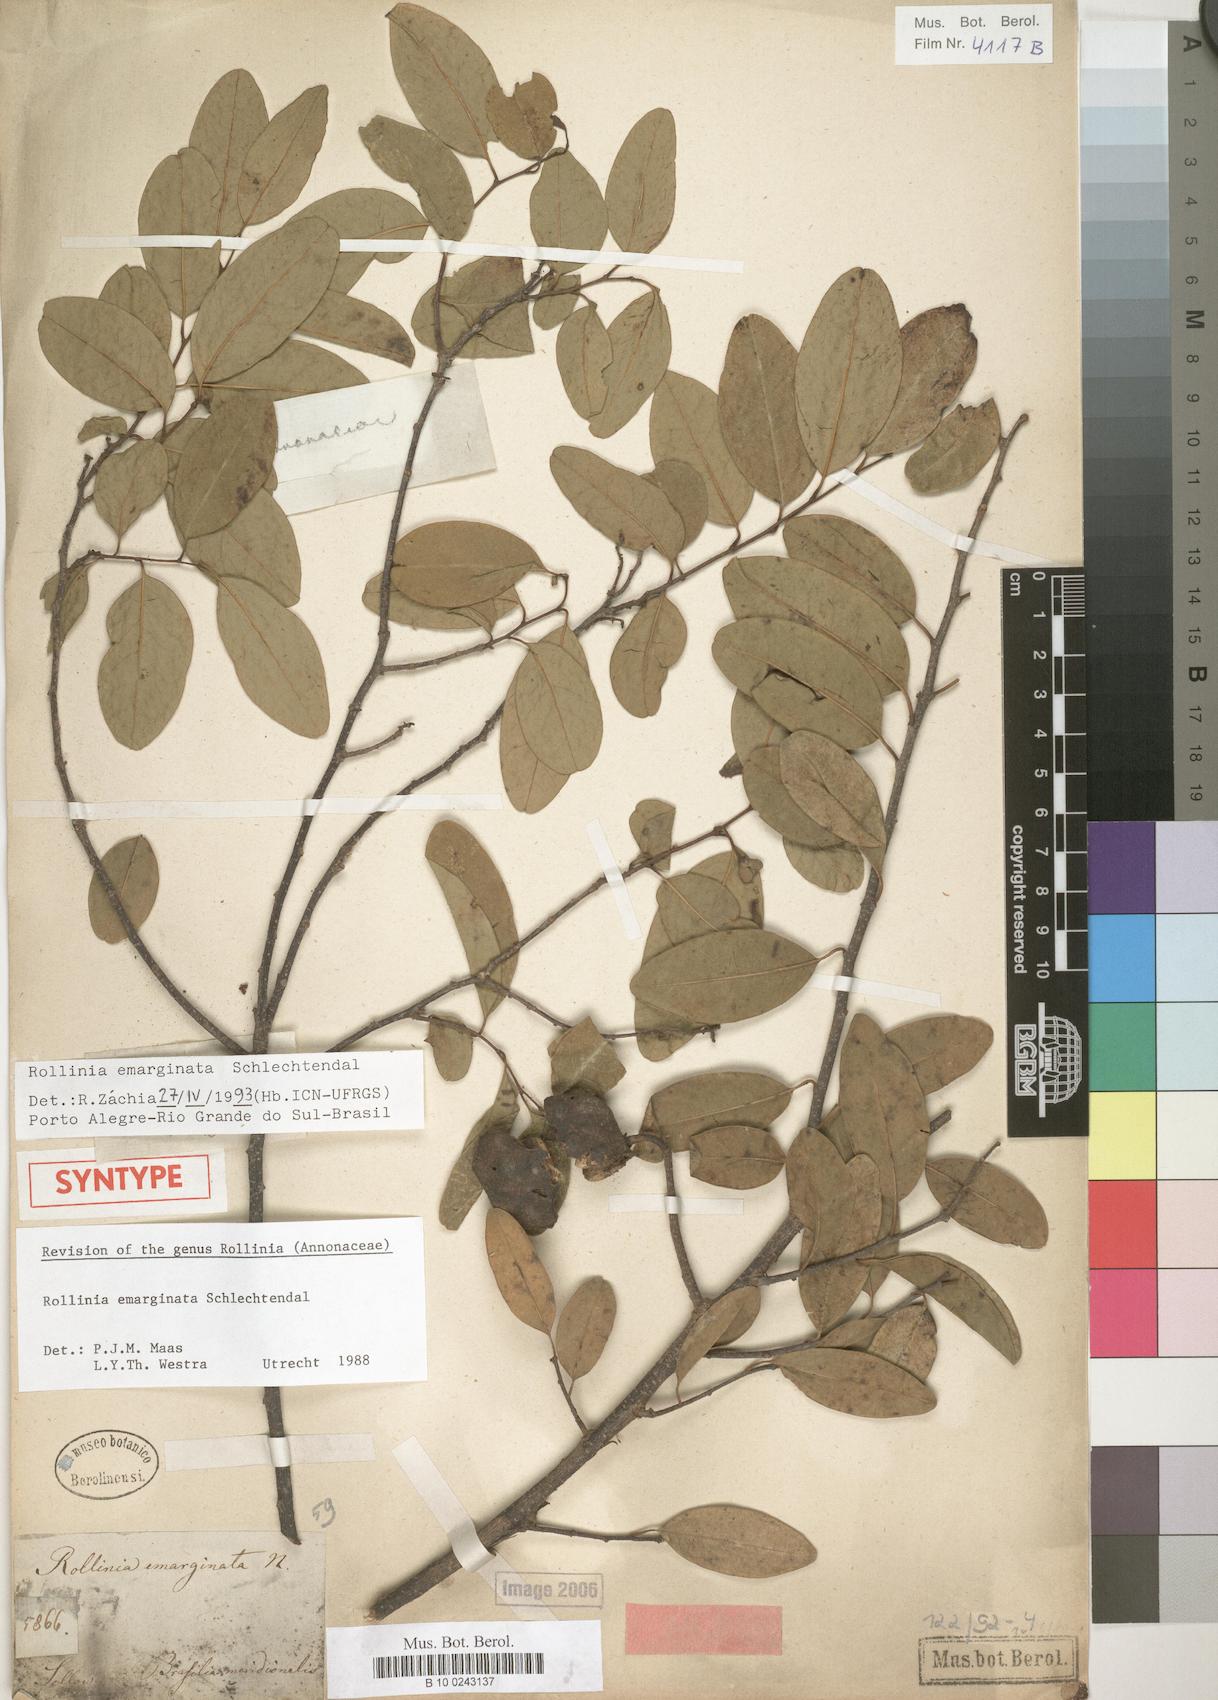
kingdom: Plantae
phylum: Tracheophyta
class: Magnoliopsida
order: Magnoliales
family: Annonaceae
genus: Annona
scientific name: Annona emarginata
